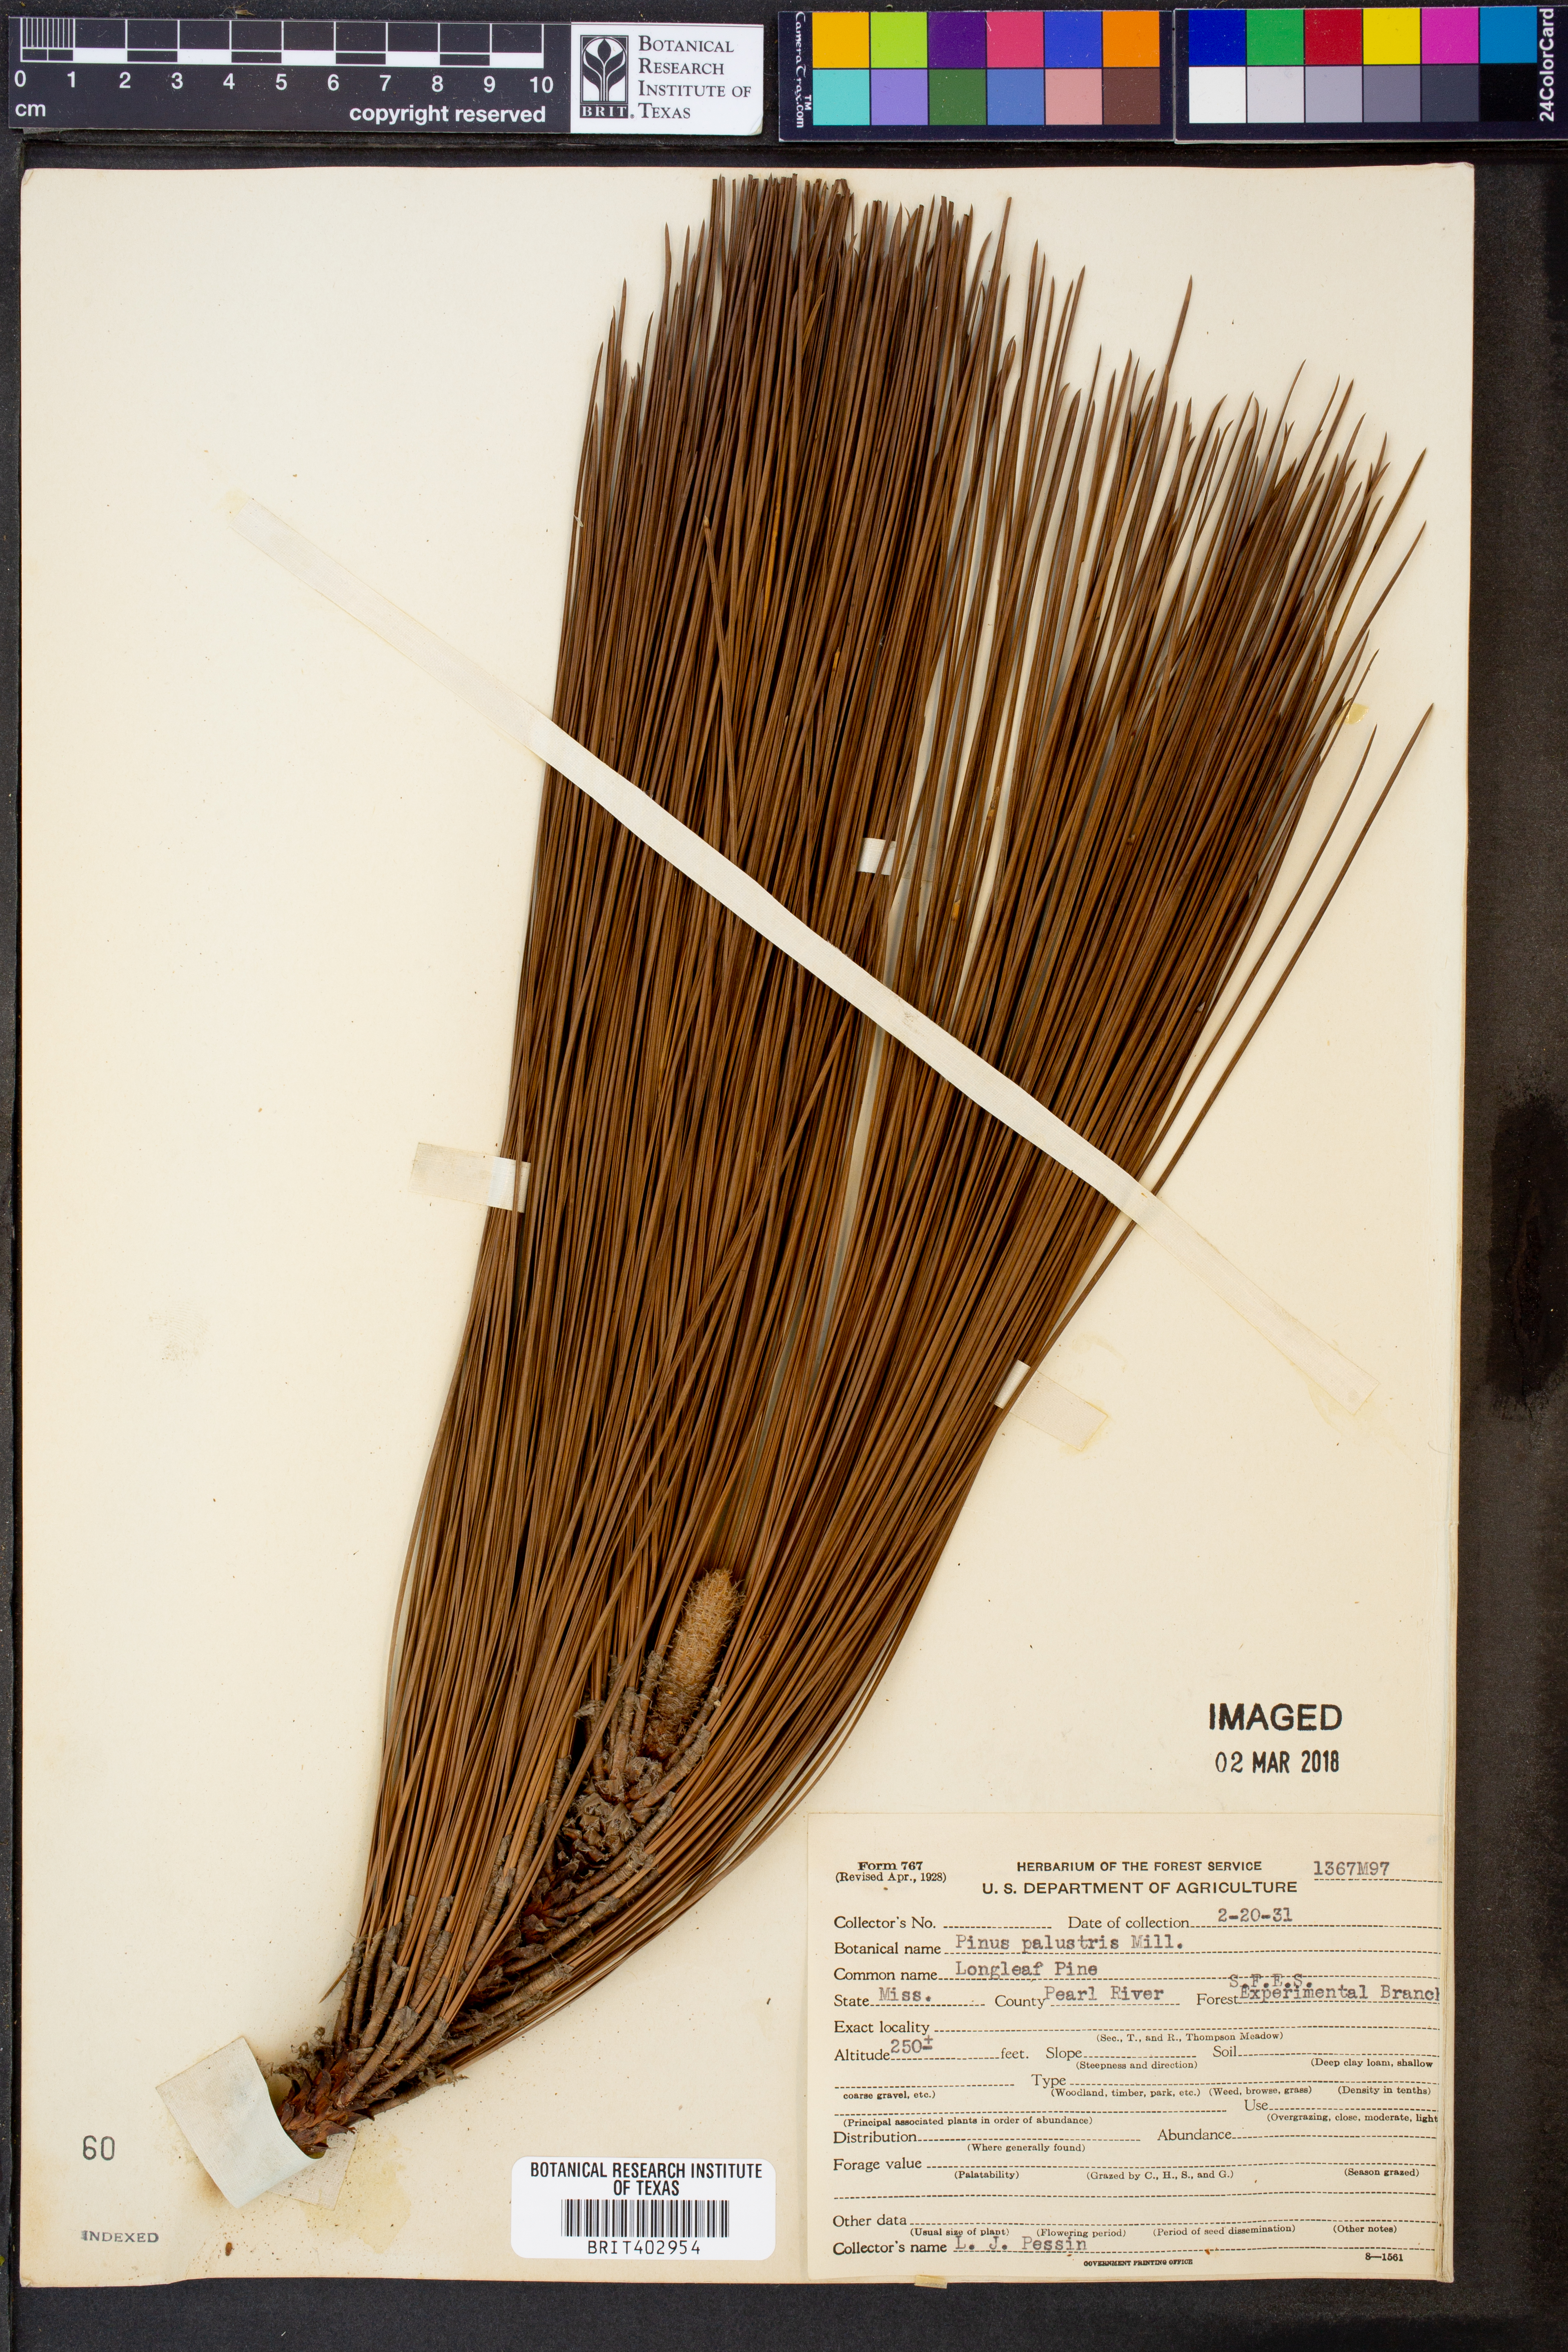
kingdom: Plantae
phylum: Tracheophyta
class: Pinopsida
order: Pinales
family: Pinaceae
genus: Pinus
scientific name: Pinus palustris
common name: Longleaf pine
